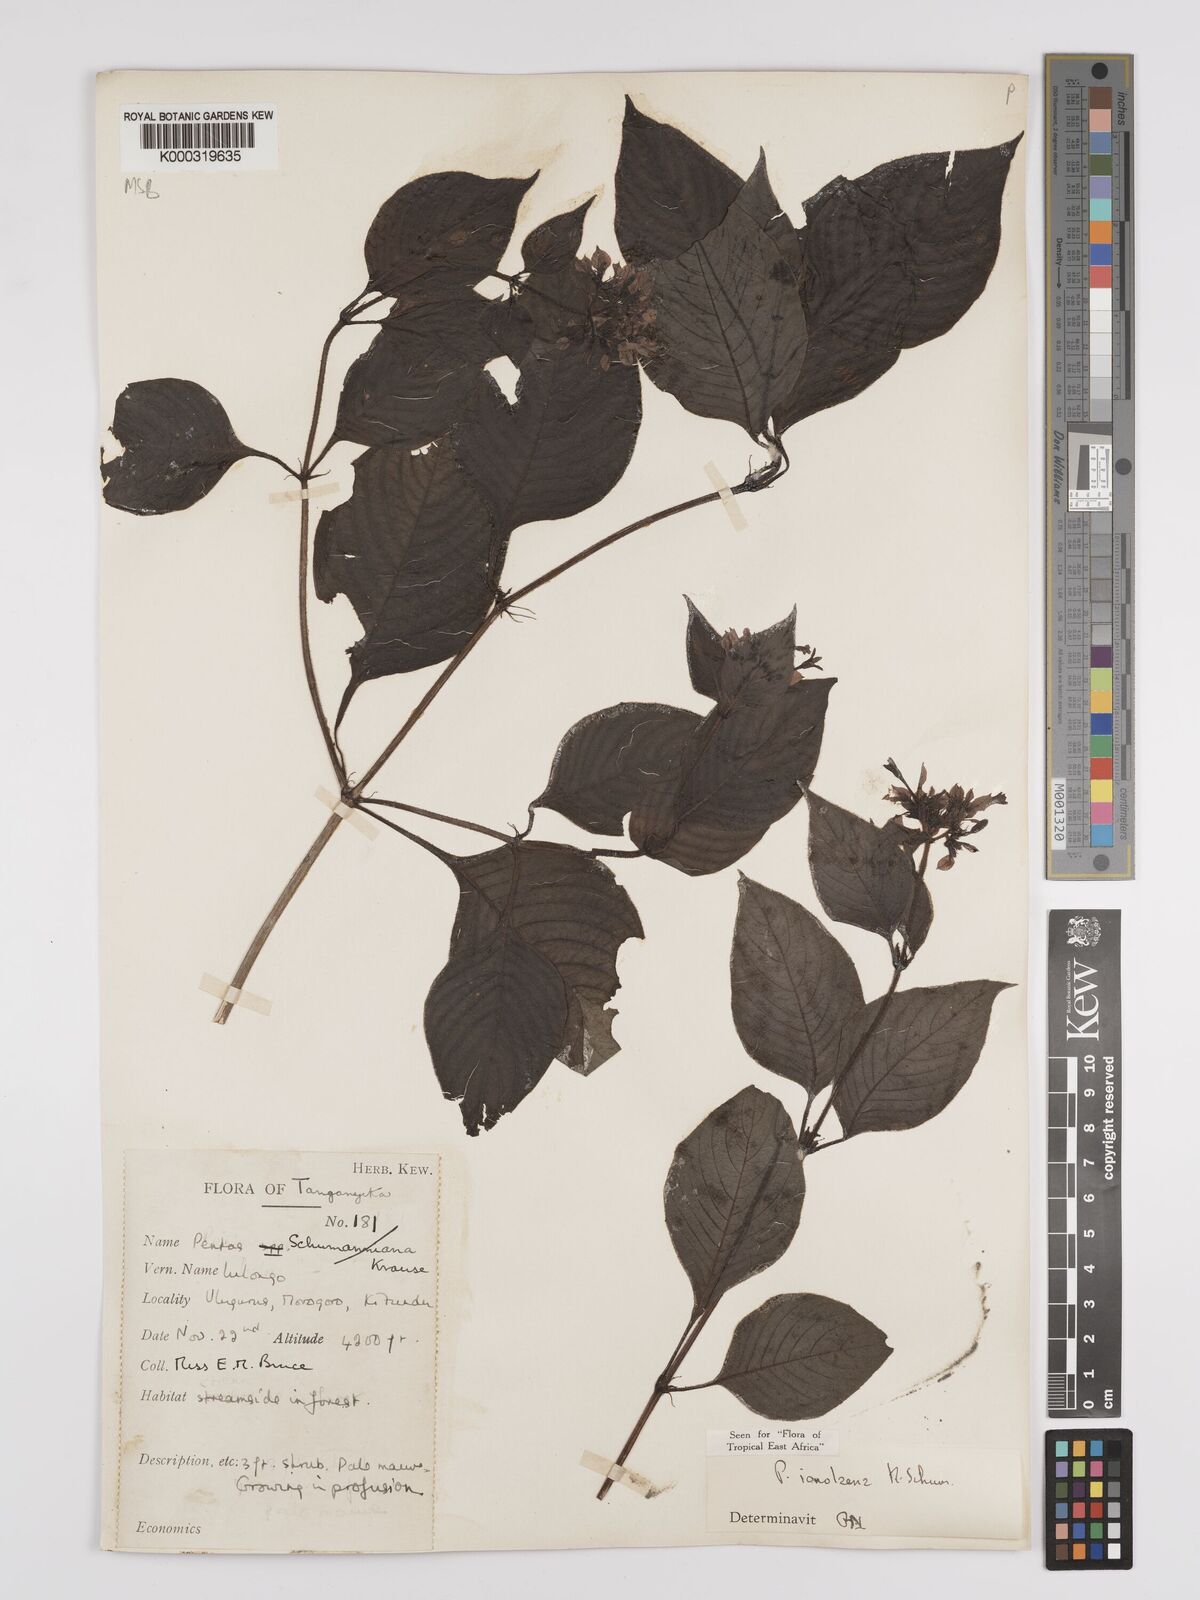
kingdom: Plantae
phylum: Tracheophyta
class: Magnoliopsida
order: Gentianales
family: Rubiaceae
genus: Phyllopentas
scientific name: Phyllopentas ionolaena
